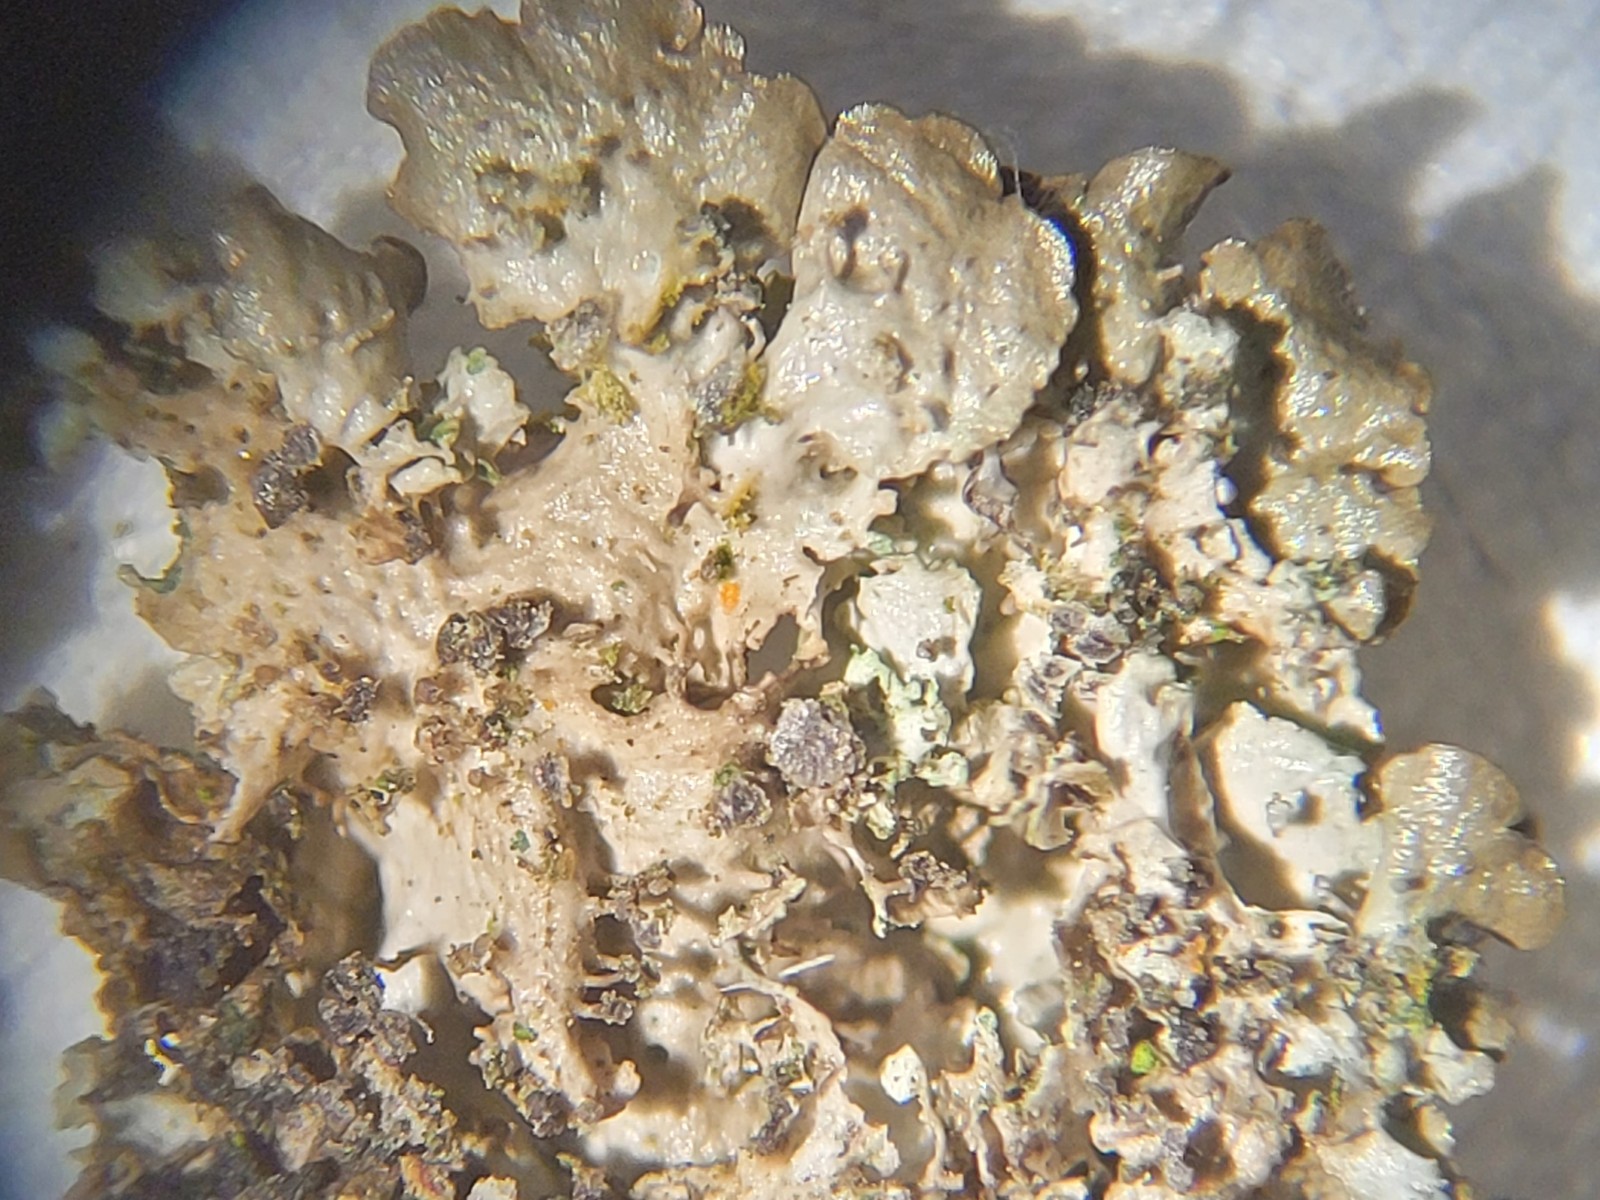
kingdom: Fungi
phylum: Ascomycota
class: Lecanoromycetes
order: Lecanorales
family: Parmeliaceae
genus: Melanohalea
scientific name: Melanohalea exasperatula
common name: kølle-skållav
